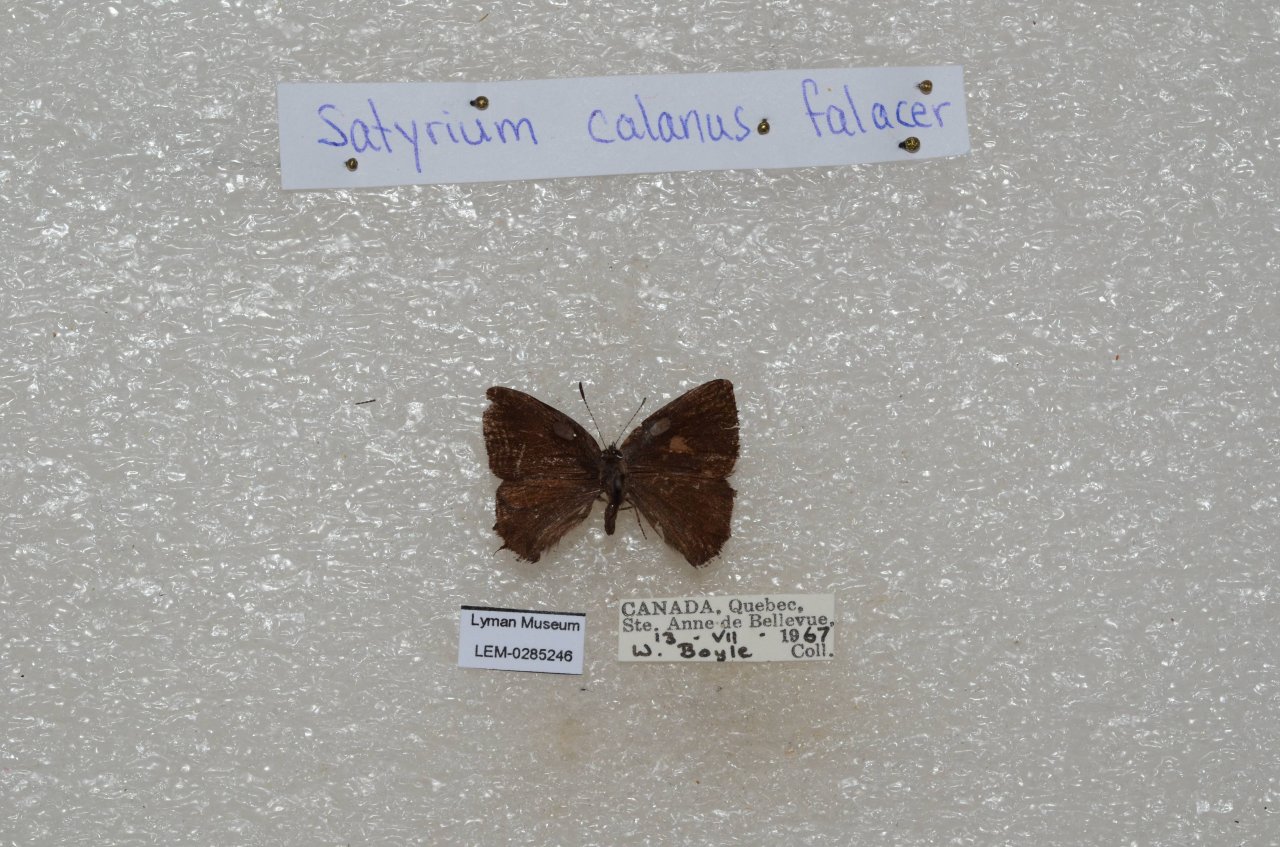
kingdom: Animalia
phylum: Arthropoda
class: Insecta
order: Lepidoptera
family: Lycaenidae
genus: Satyrium
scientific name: Satyrium calanus
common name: Banded Hairstreak
